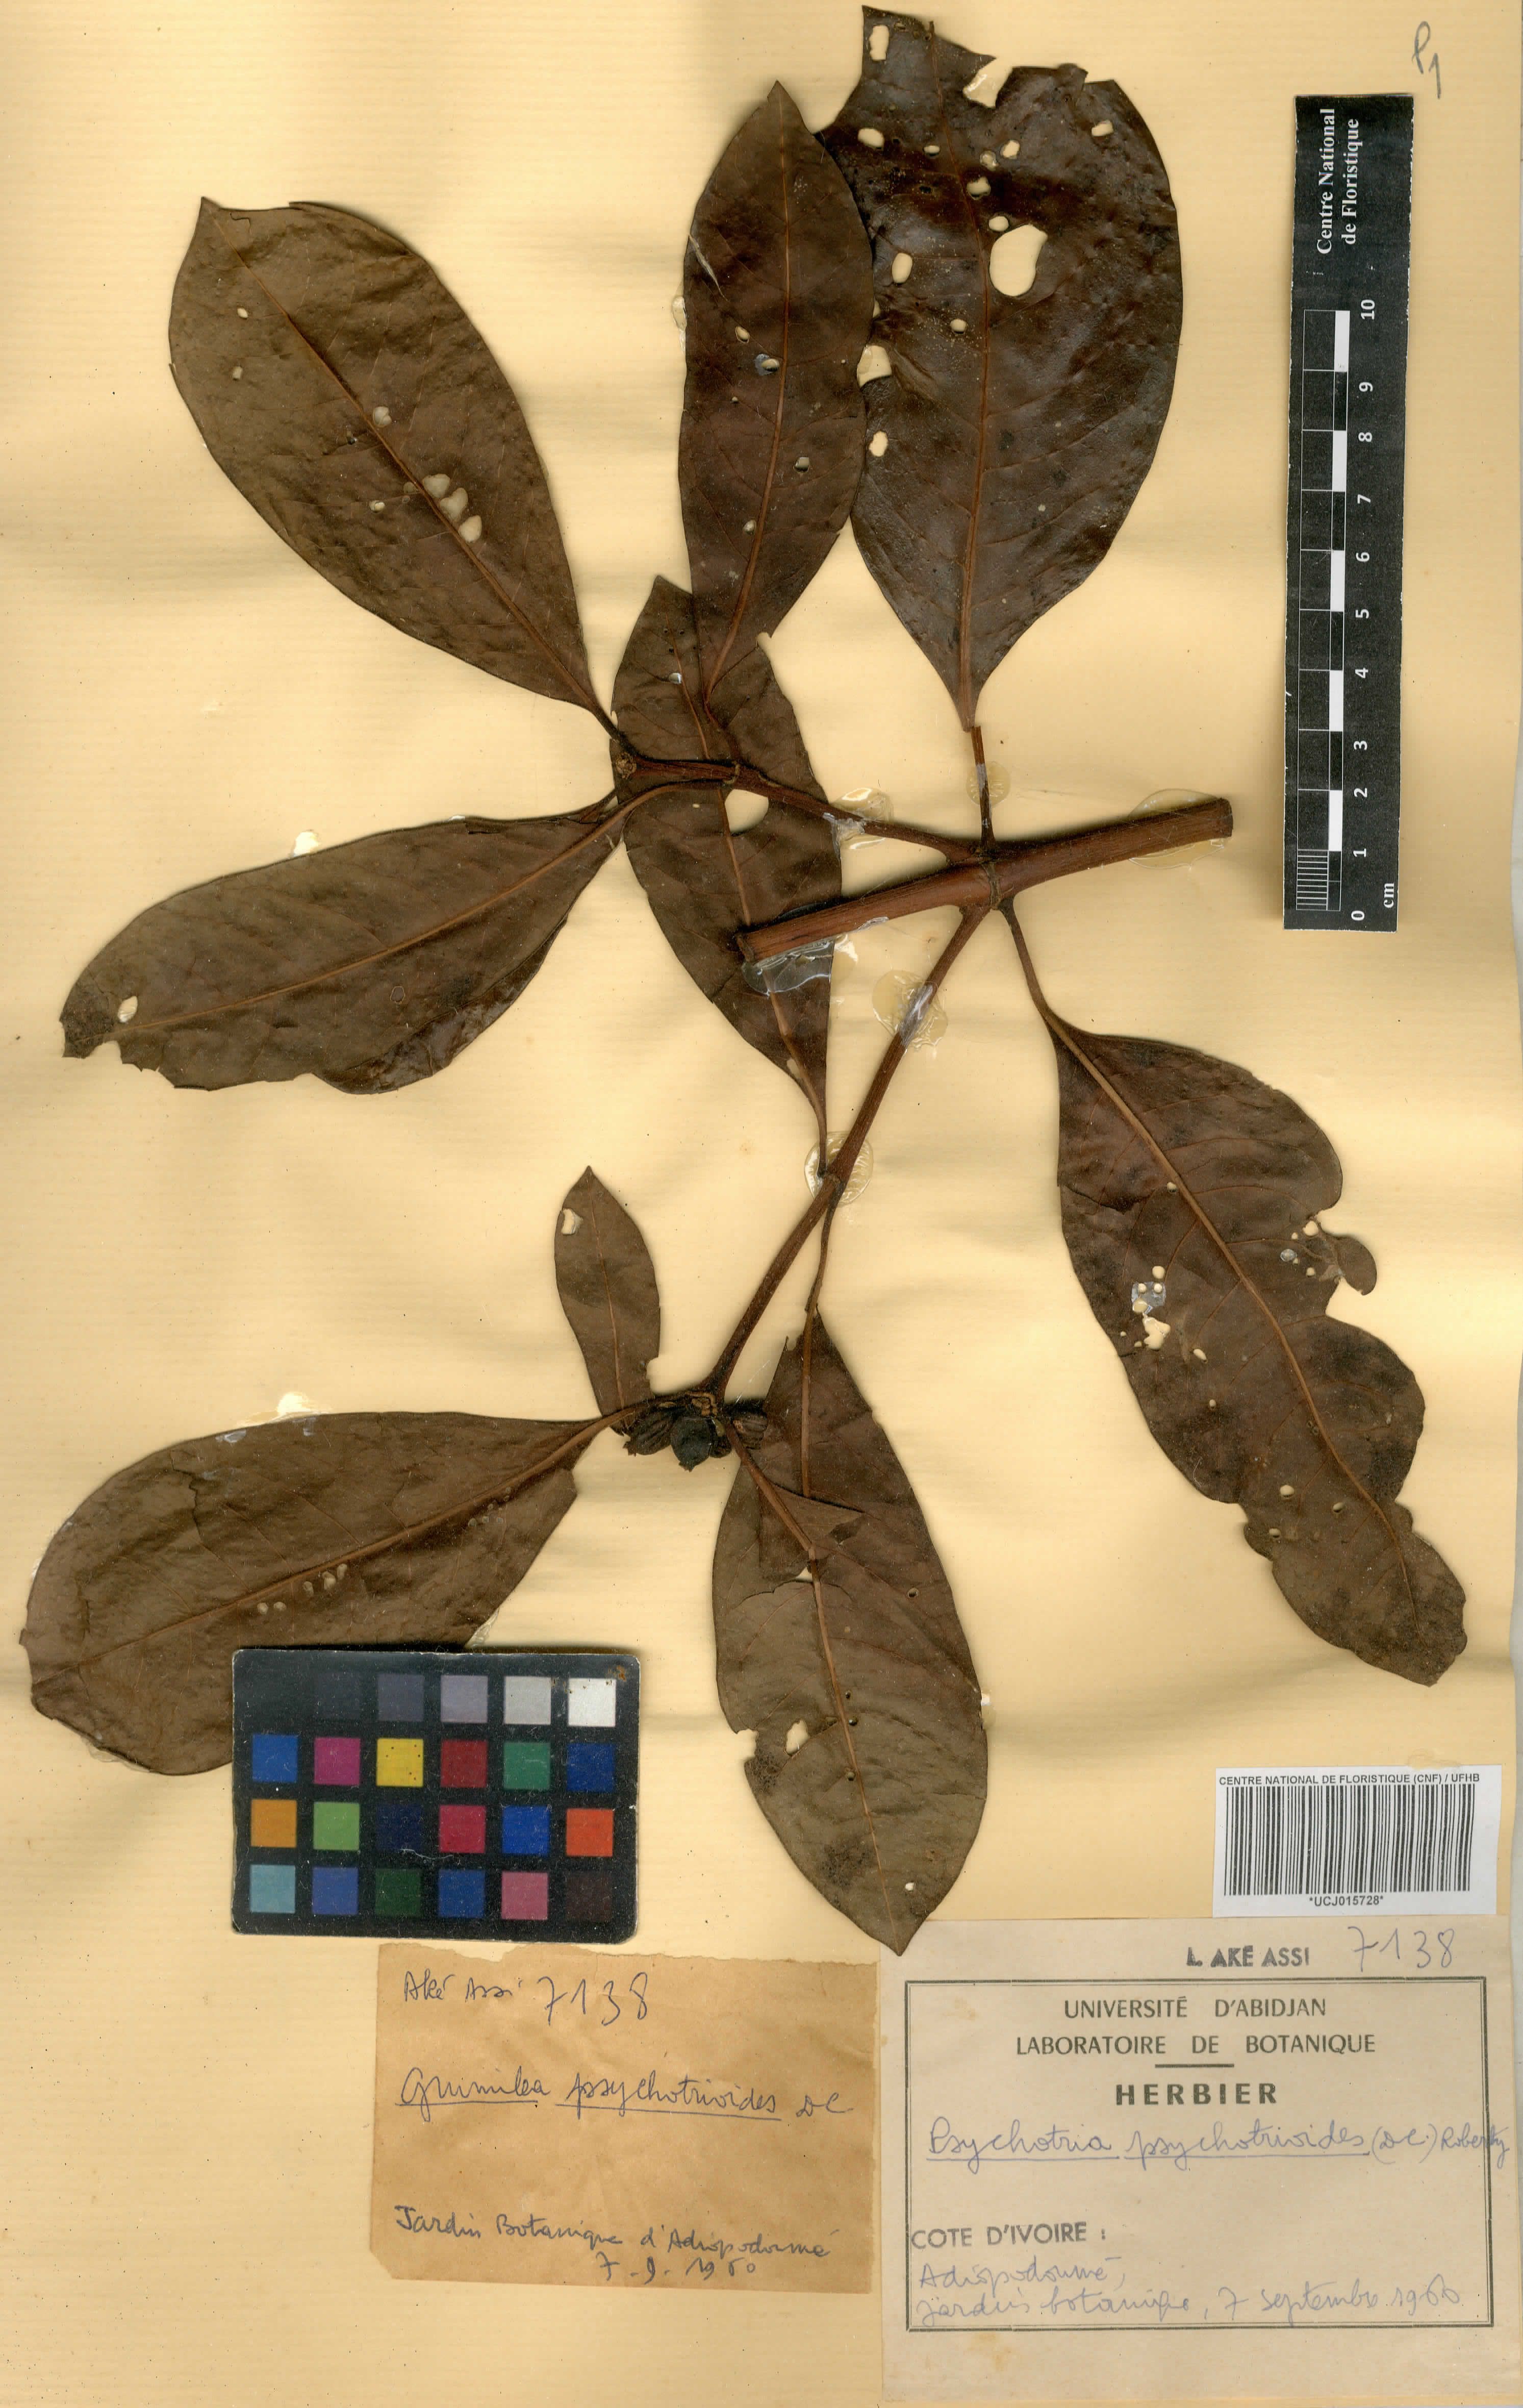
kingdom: Plantae
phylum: Tracheophyta
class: Magnoliopsida
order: Gentianales
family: Rubiaceae
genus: Psychotria
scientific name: Psychotria psychotrioides
